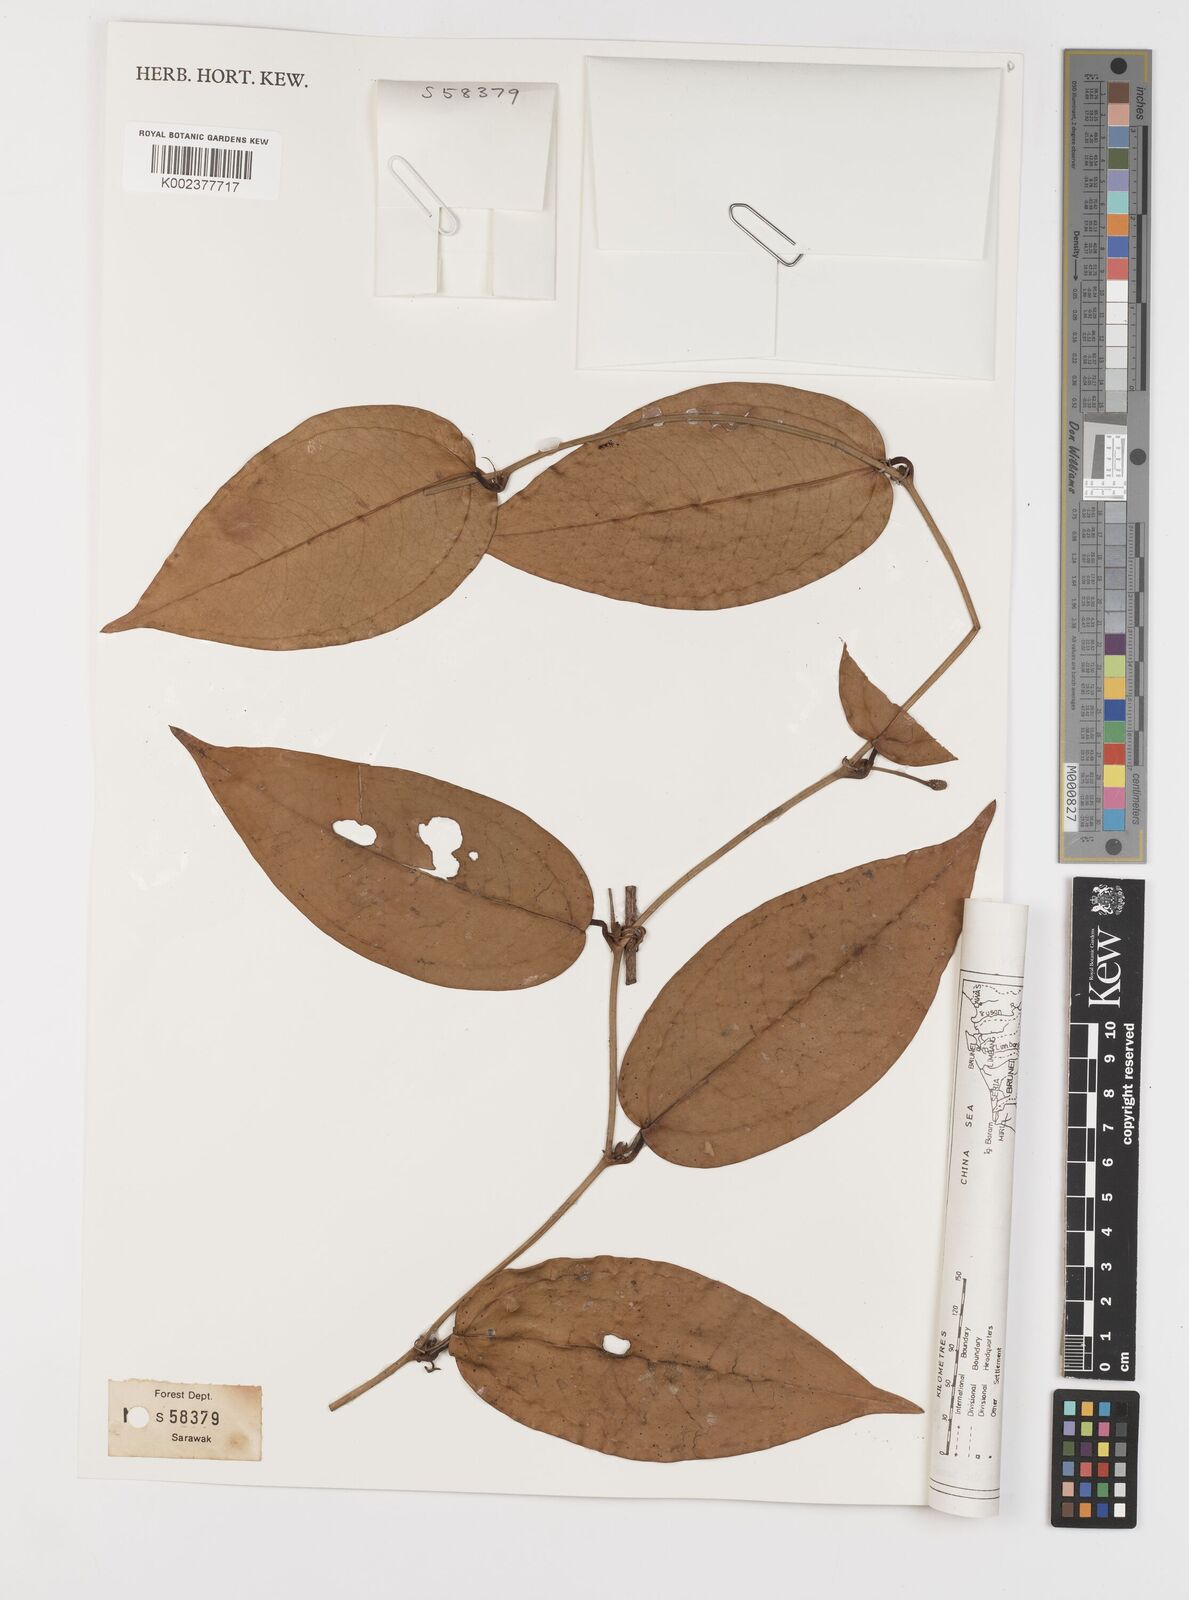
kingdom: Plantae
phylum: Tracheophyta
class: Liliopsida
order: Liliales
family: Smilacaceae
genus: Smilax
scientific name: Smilax myosotiflora
